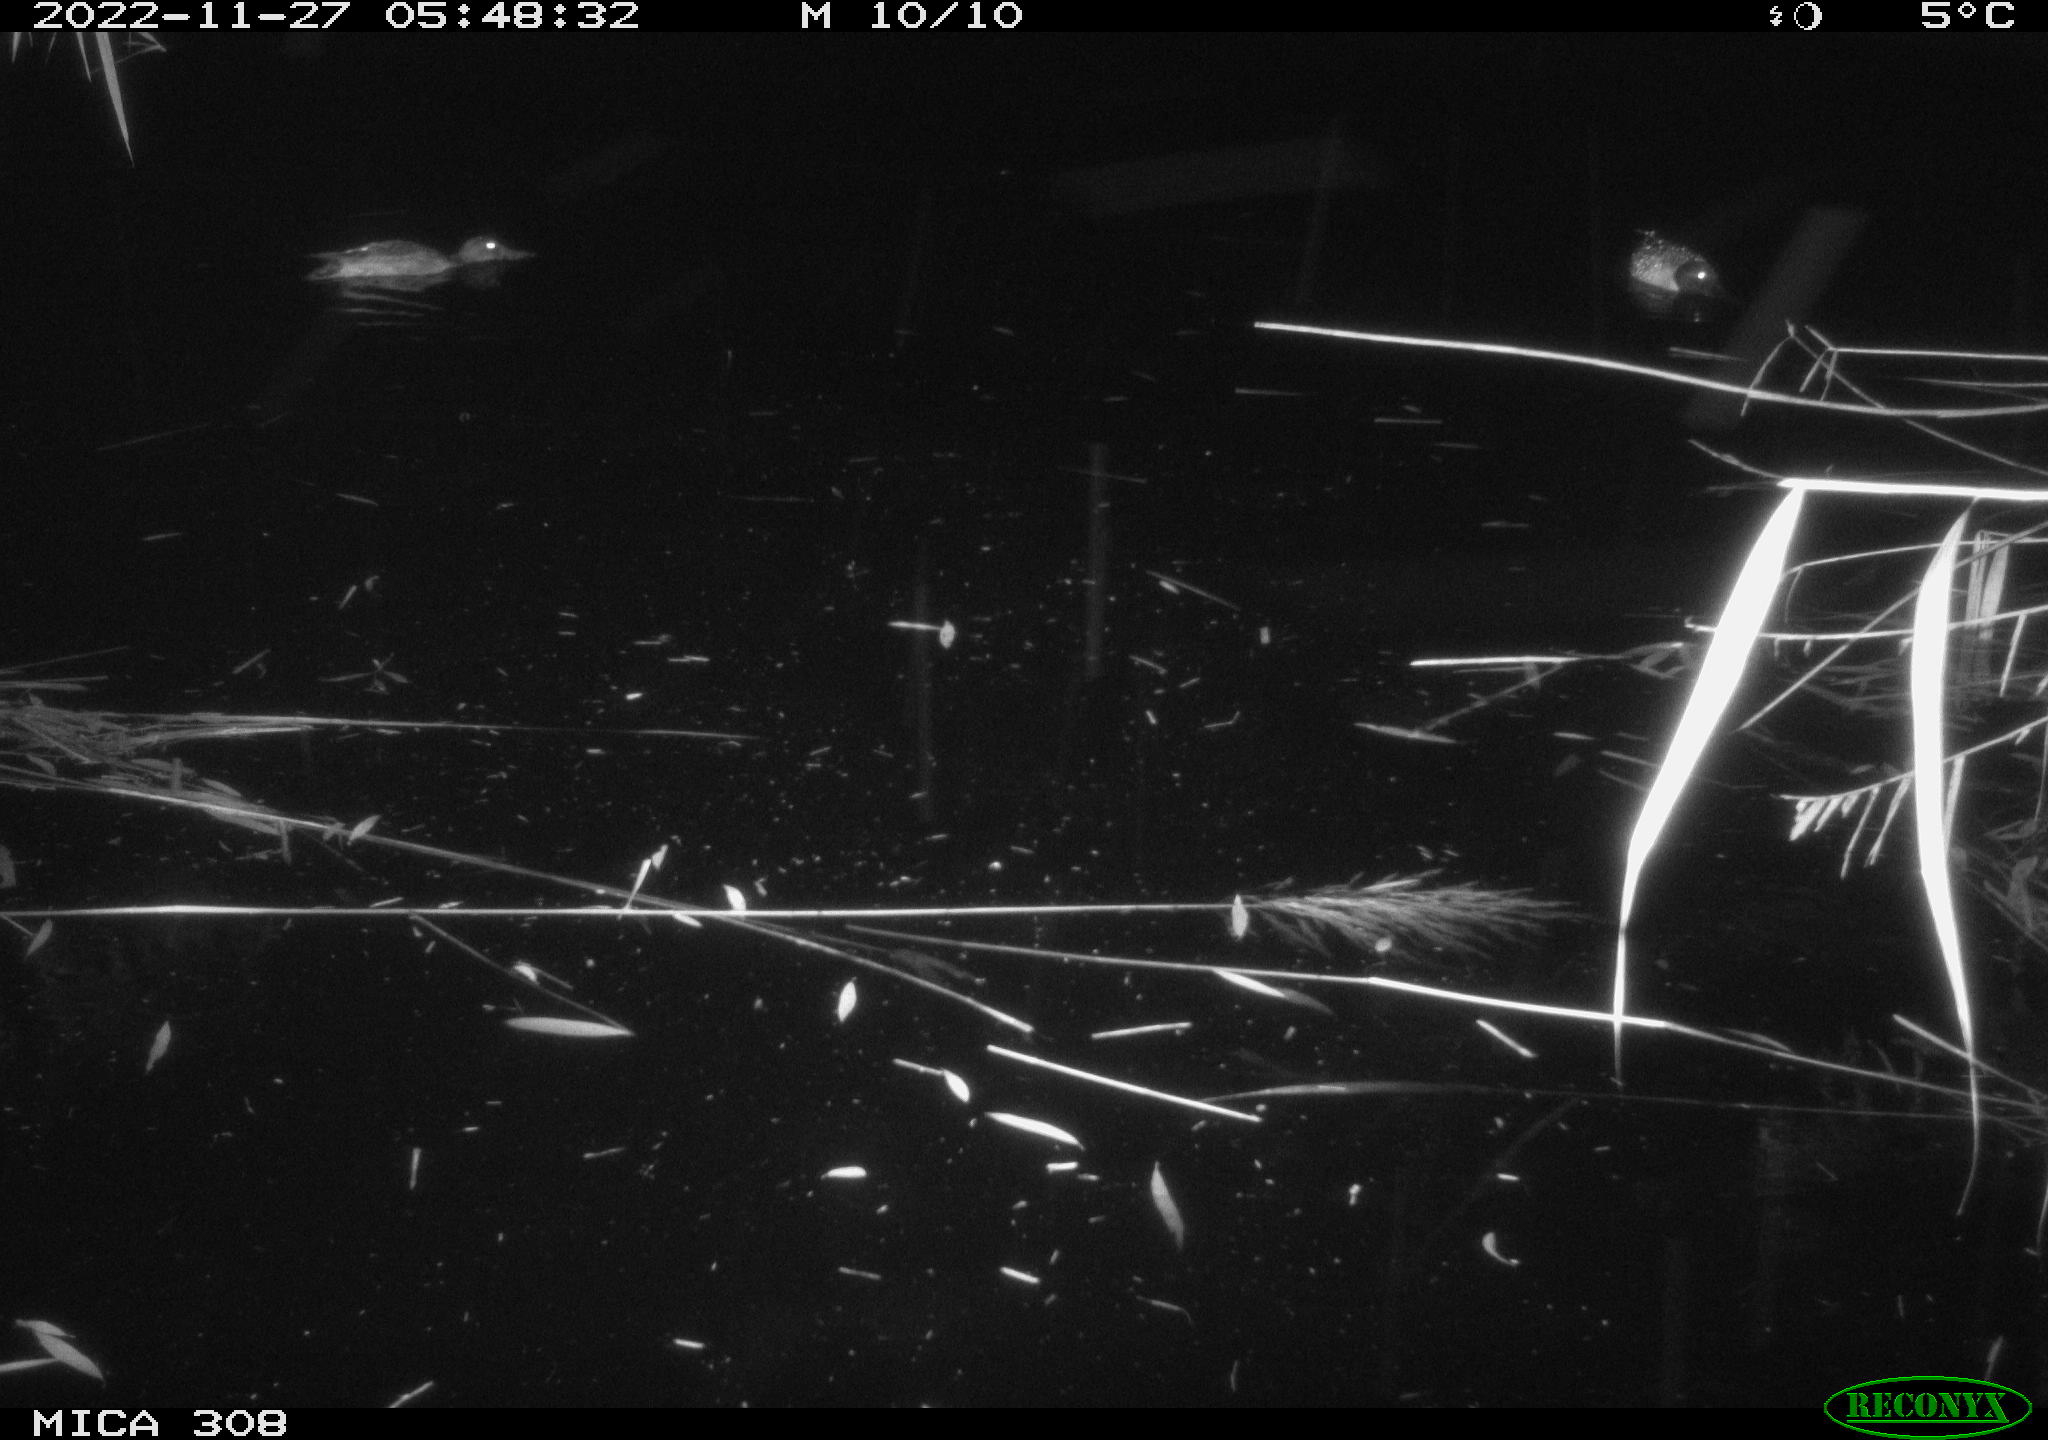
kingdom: Animalia
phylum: Chordata
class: Aves
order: Anseriformes
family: Anatidae
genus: Anas
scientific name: Anas
